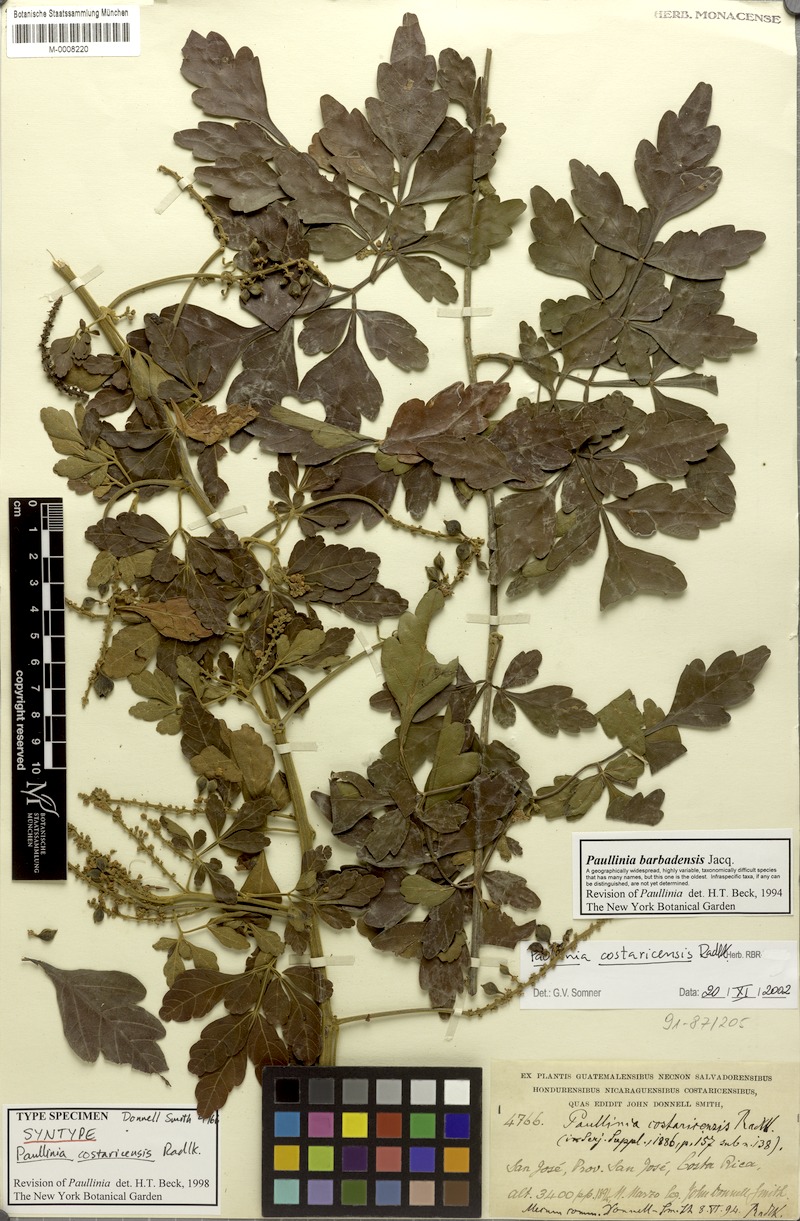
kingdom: Plantae
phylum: Tracheophyta
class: Magnoliopsida
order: Sapindales
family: Sapindaceae
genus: Paullinia
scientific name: Paullinia costaricensis
